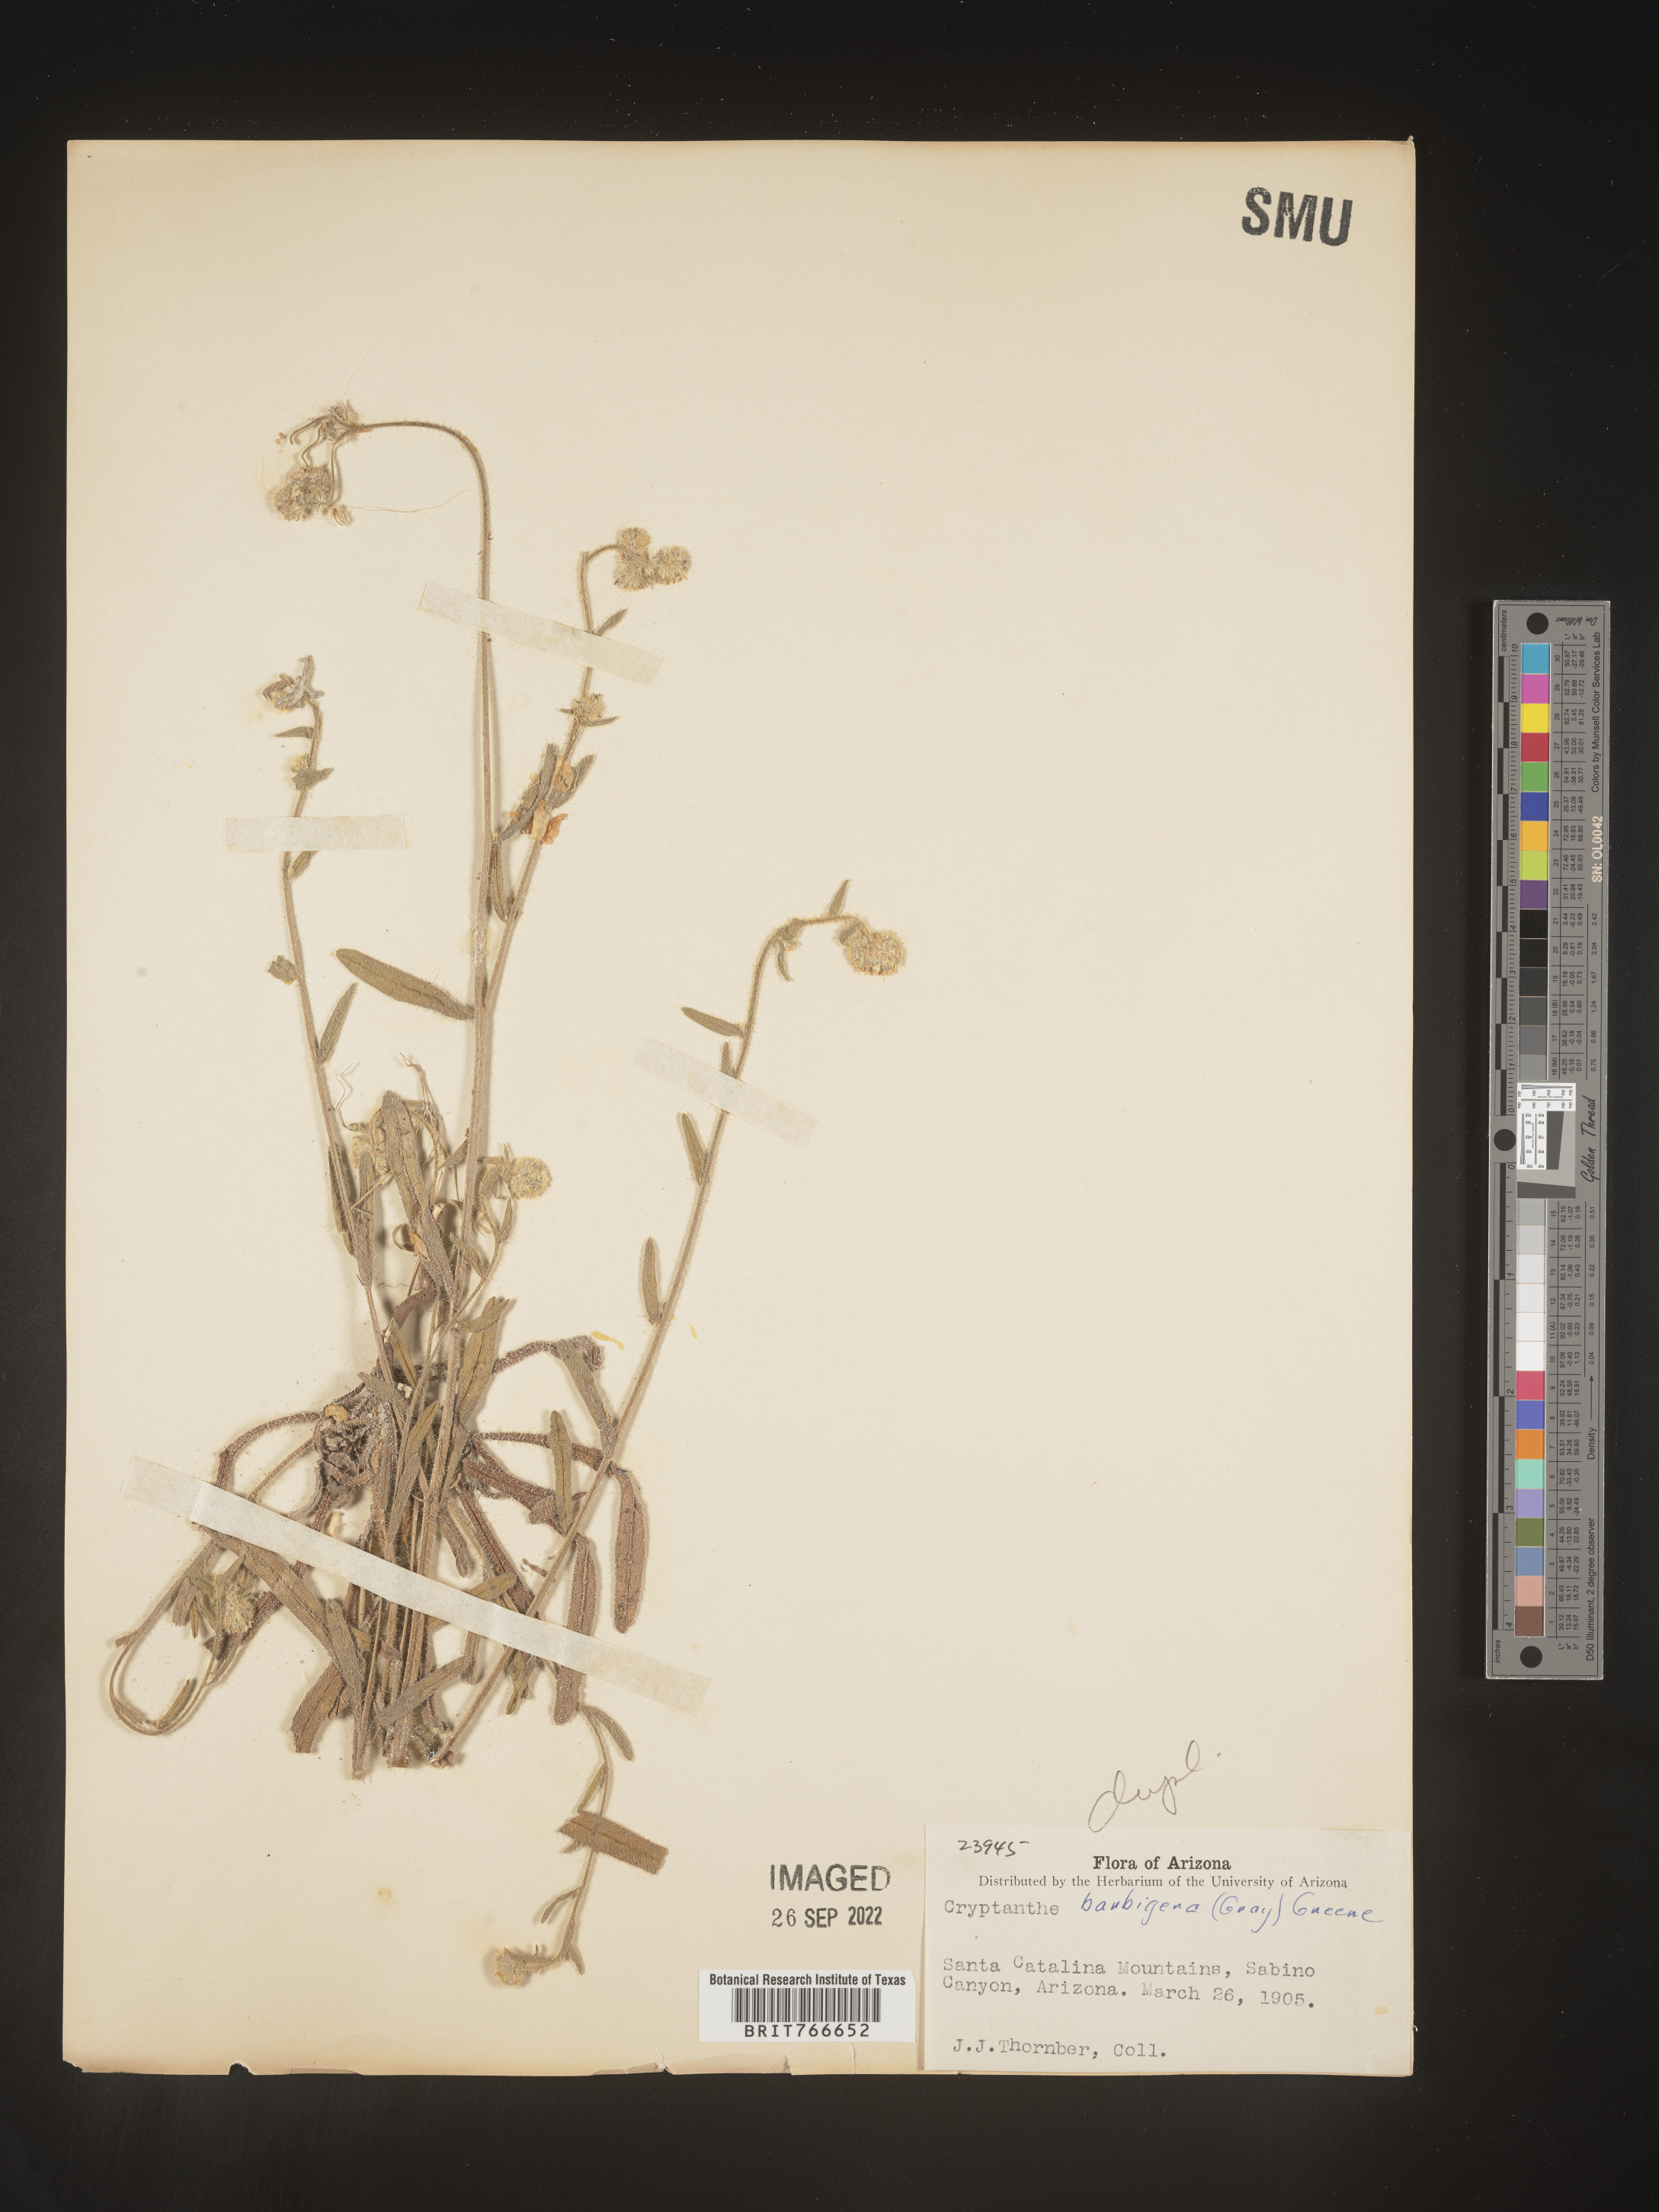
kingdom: Plantae
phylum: Tracheophyta
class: Magnoliopsida
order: Boraginales
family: Boraginaceae
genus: Cryptantha
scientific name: Cryptantha
